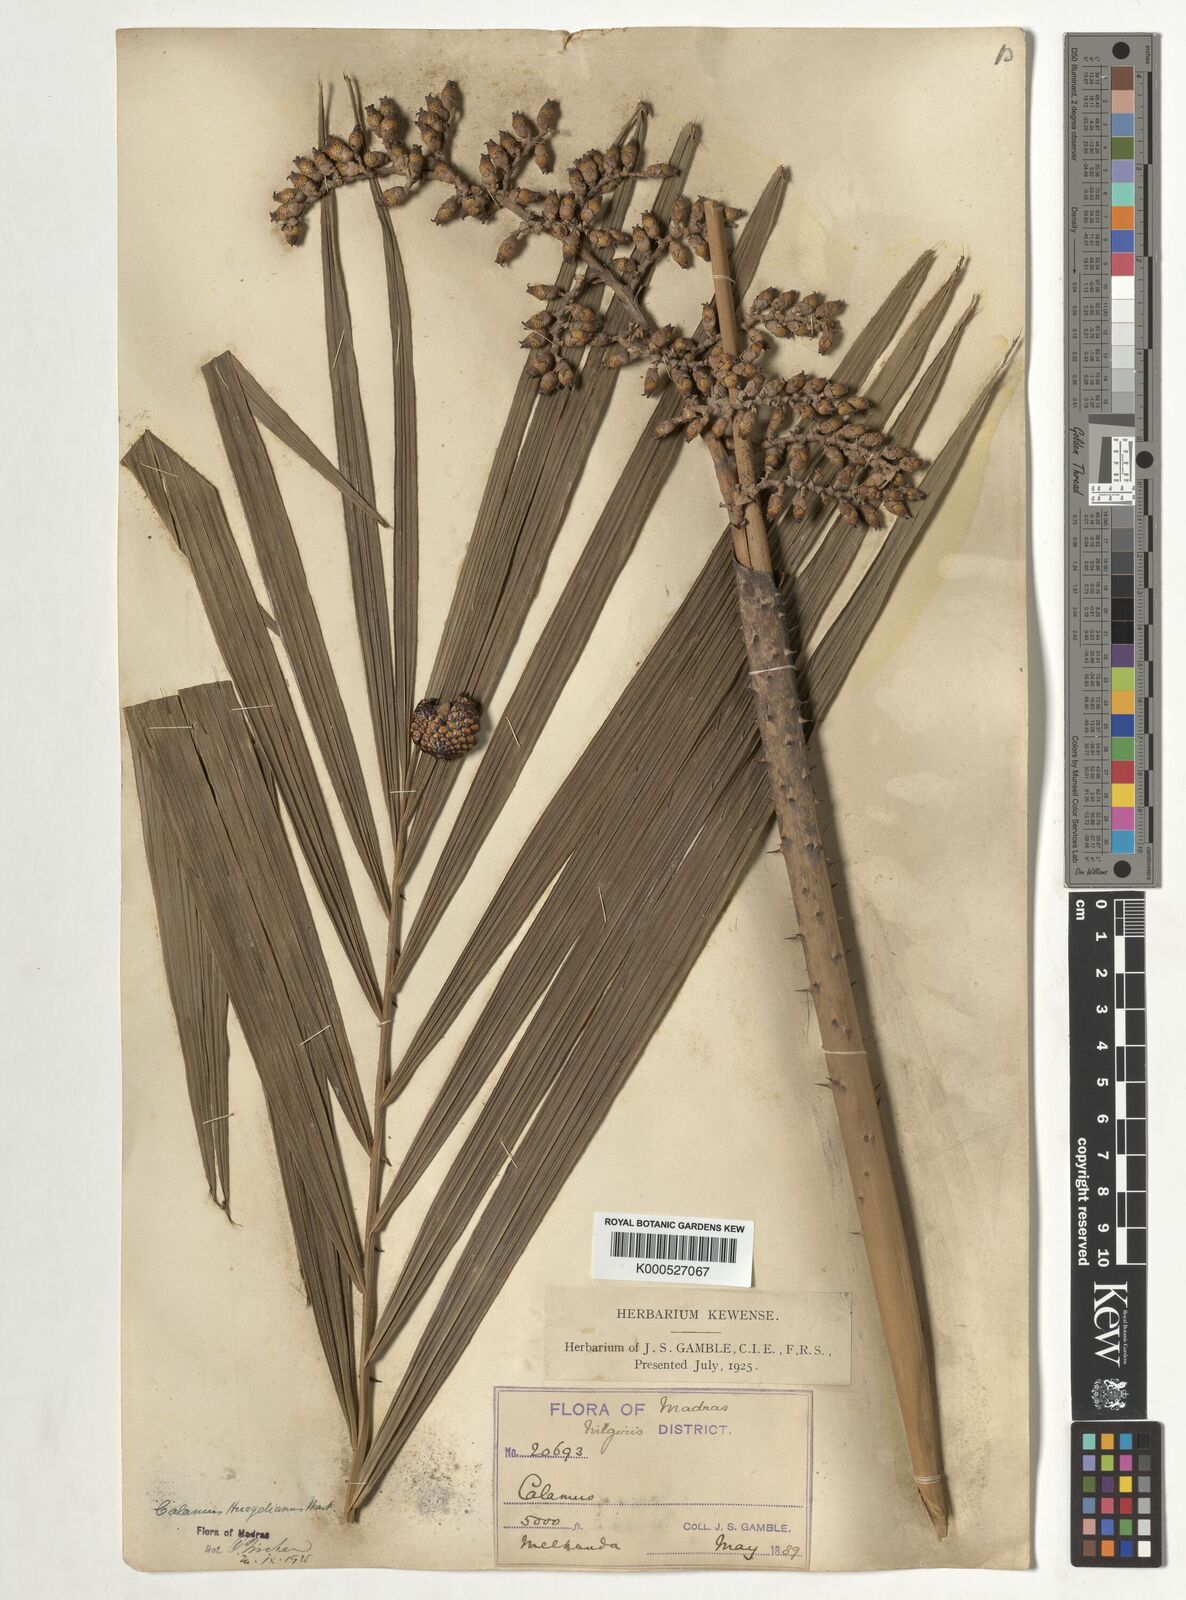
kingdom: Plantae
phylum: Tracheophyta
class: Liliopsida
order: Arecales
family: Arecaceae
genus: Calamus
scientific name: Calamus wightii
